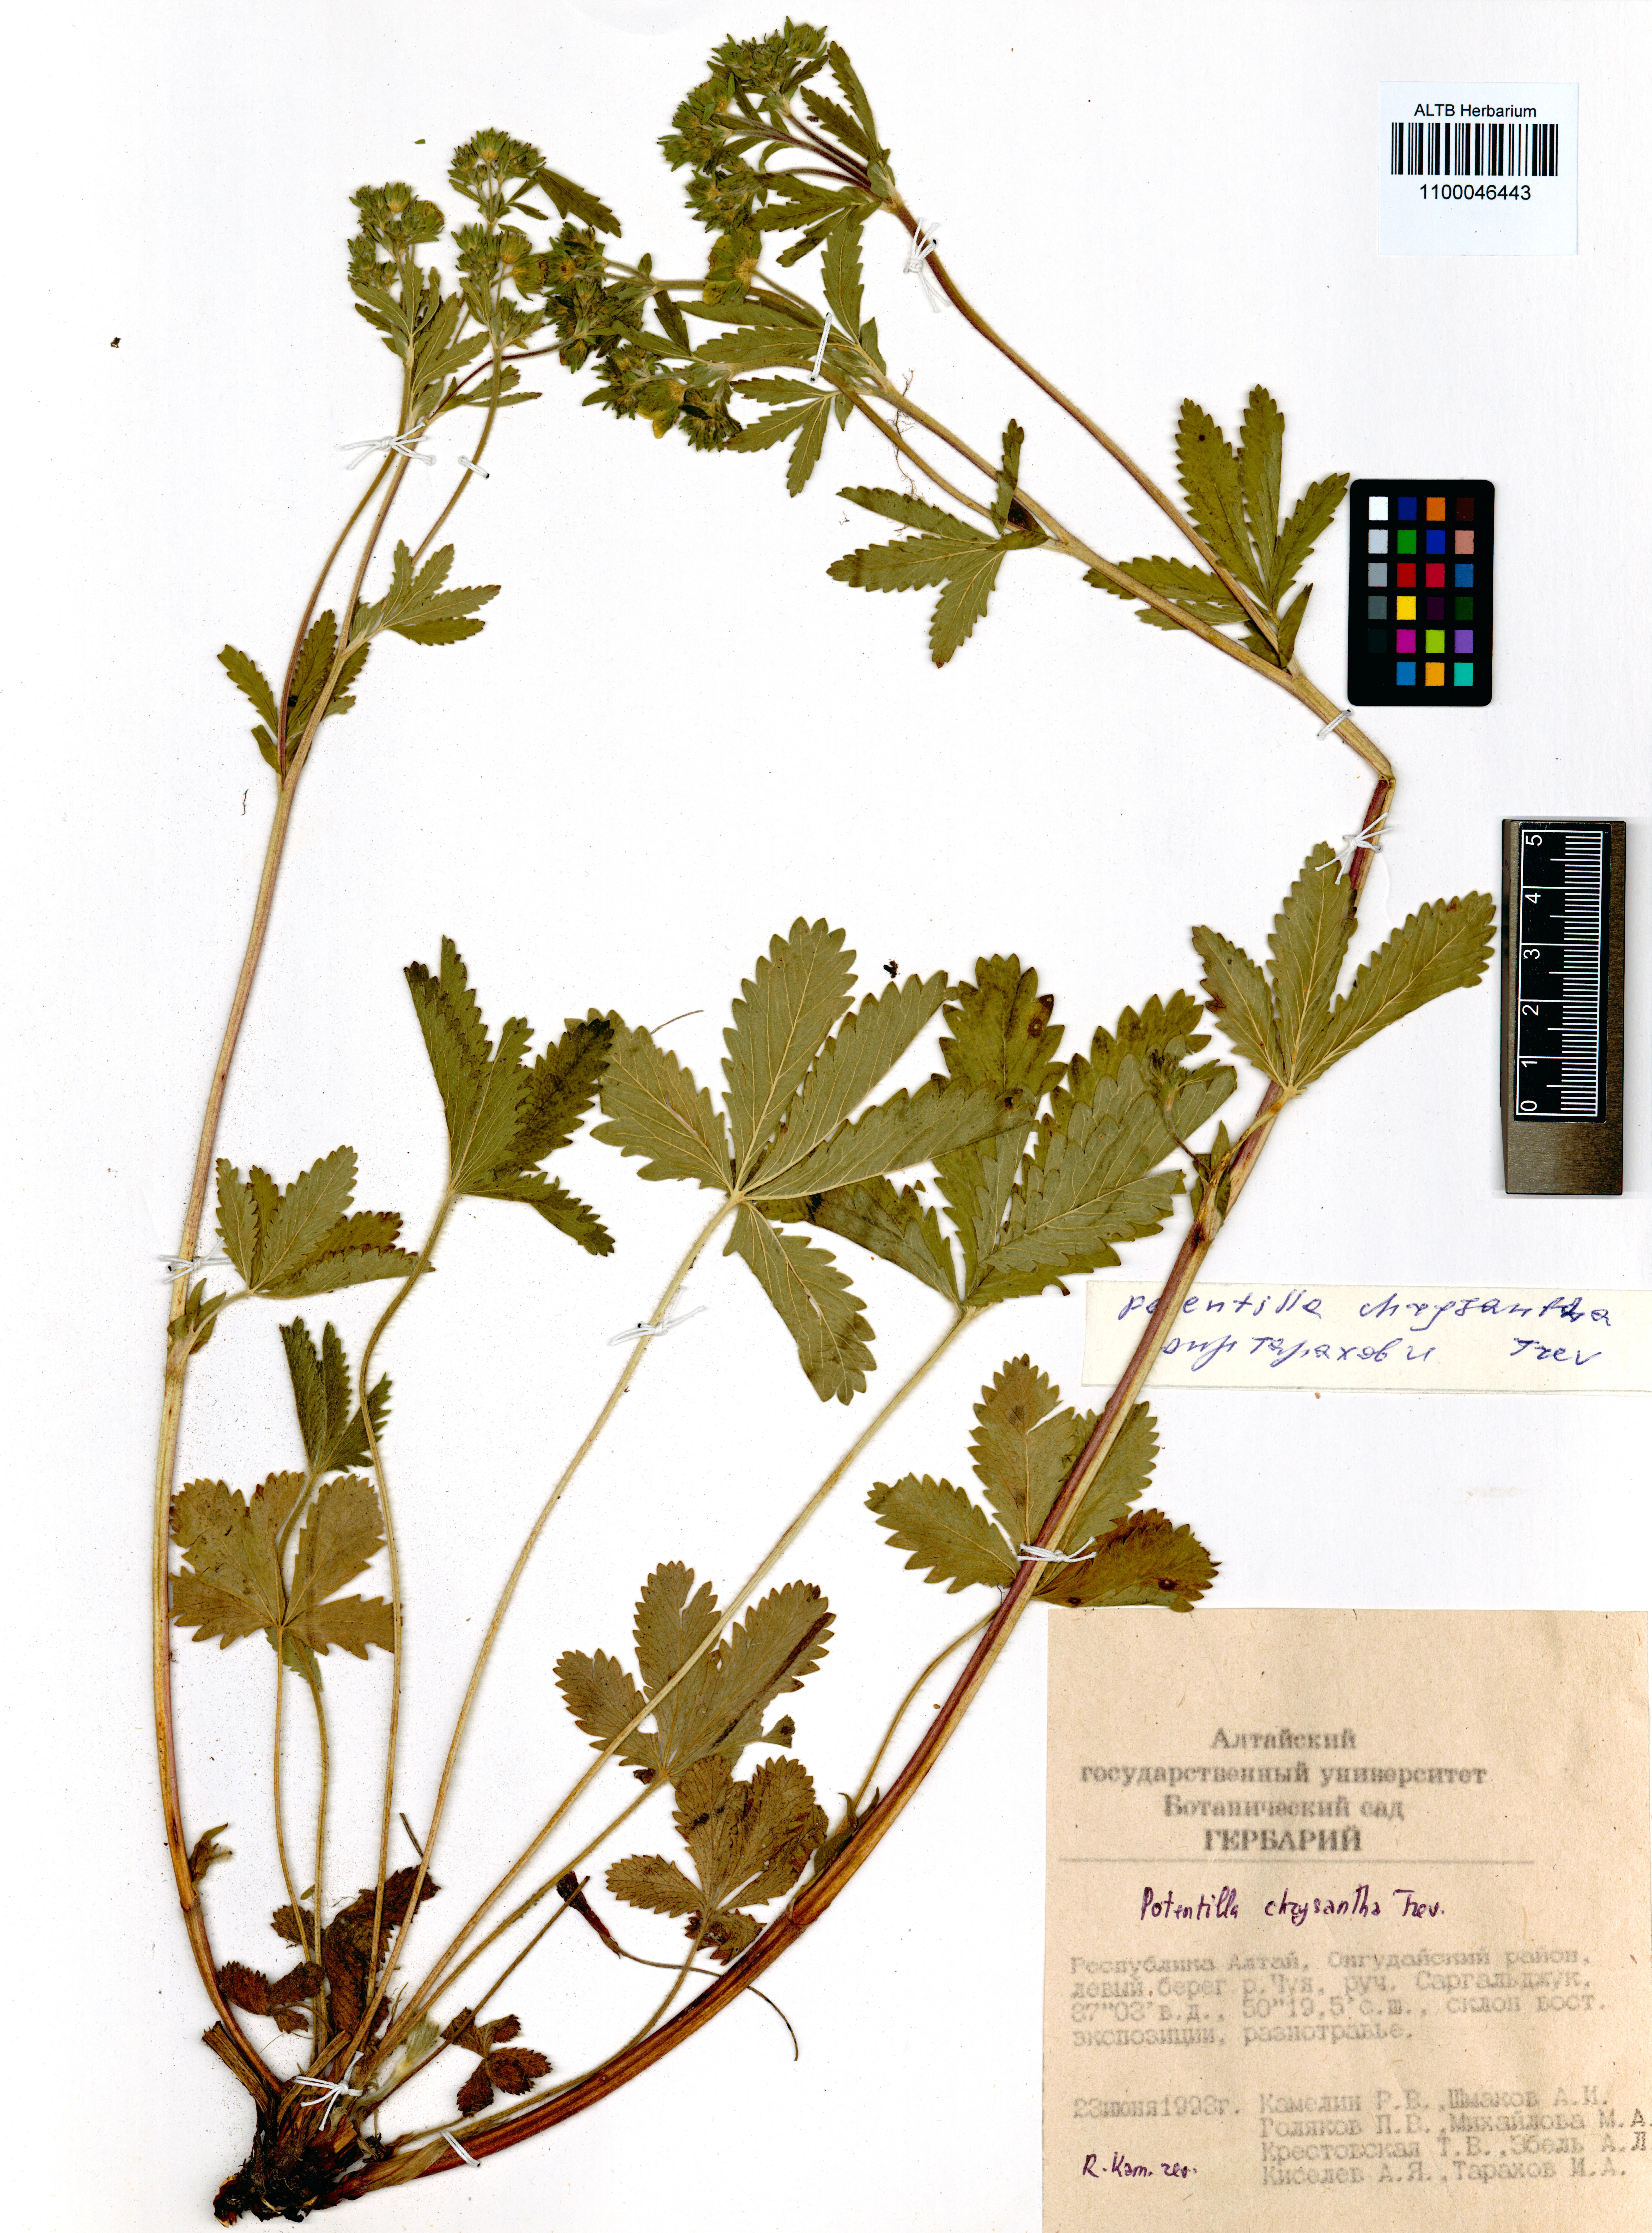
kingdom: Plantae
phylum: Tracheophyta
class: Magnoliopsida
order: Rosales
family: Rosaceae
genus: Potentilla
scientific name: Potentilla chrysantha
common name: Thuringian cinquefoil
